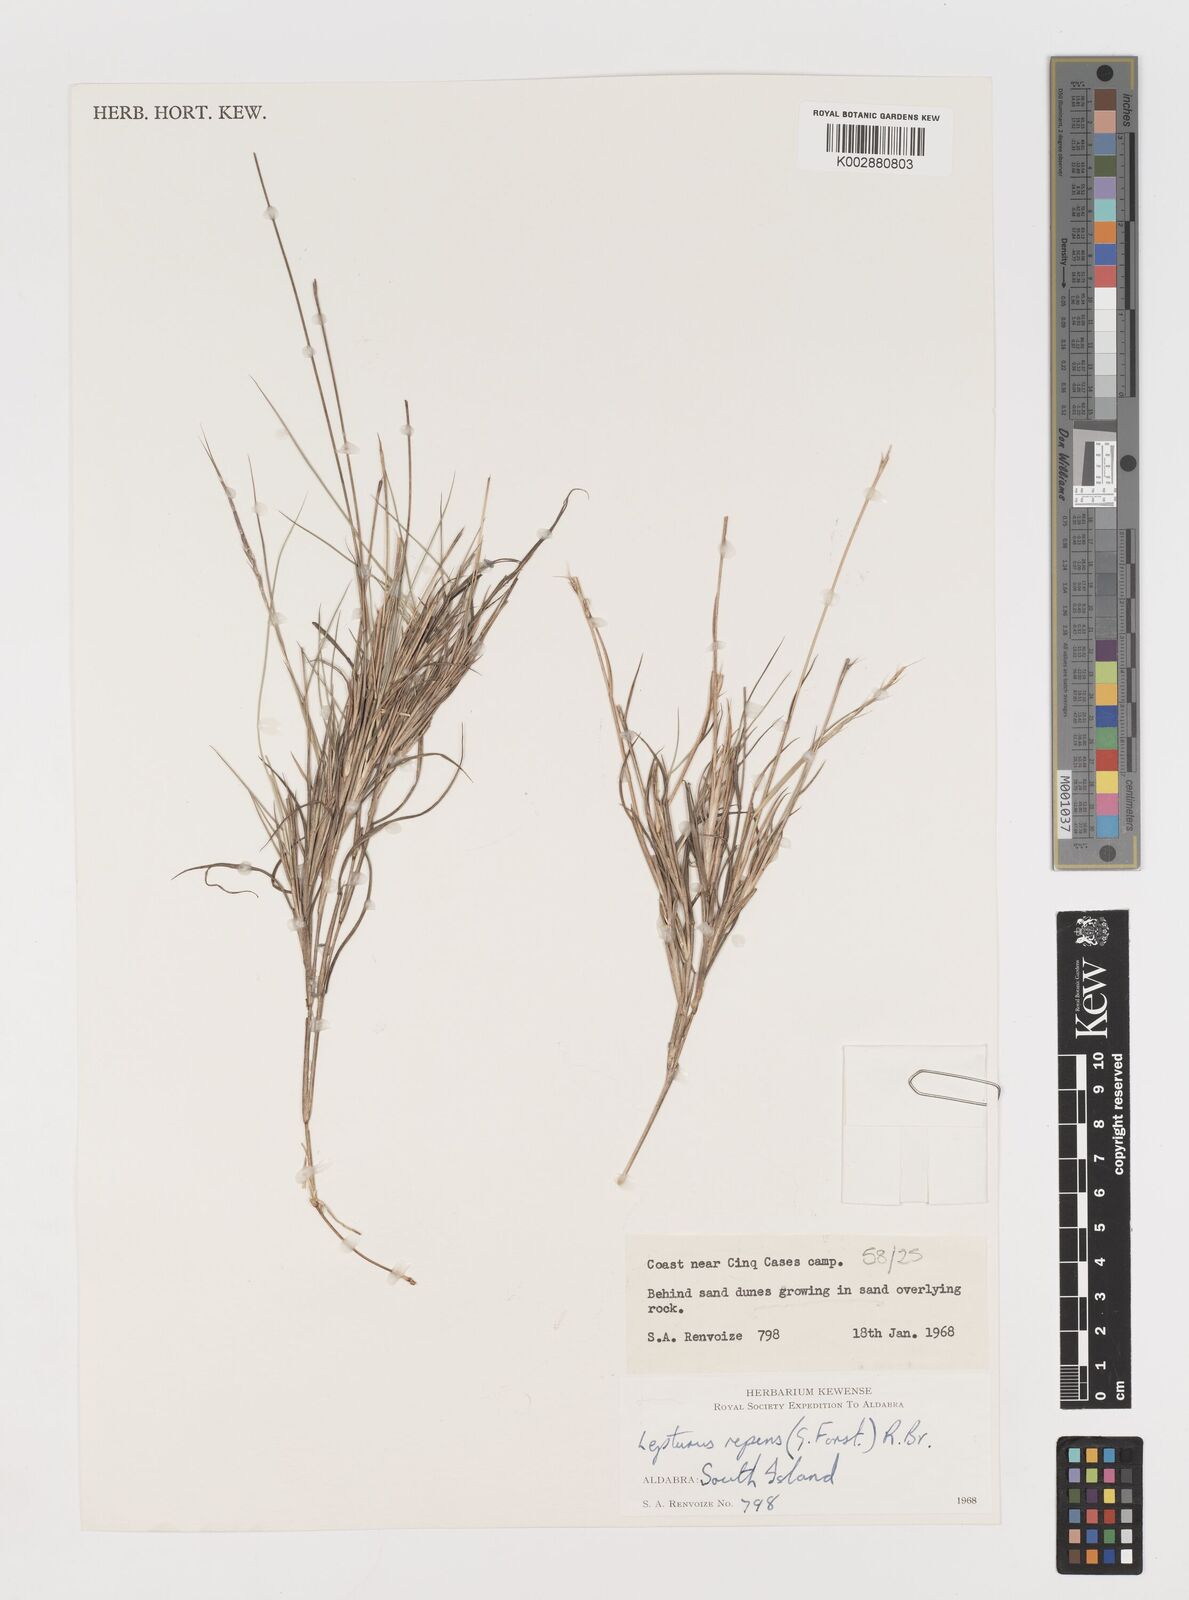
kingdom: Plantae
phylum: Tracheophyta
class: Liliopsida
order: Poales
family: Poaceae
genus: Lepturus
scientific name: Lepturus repens
